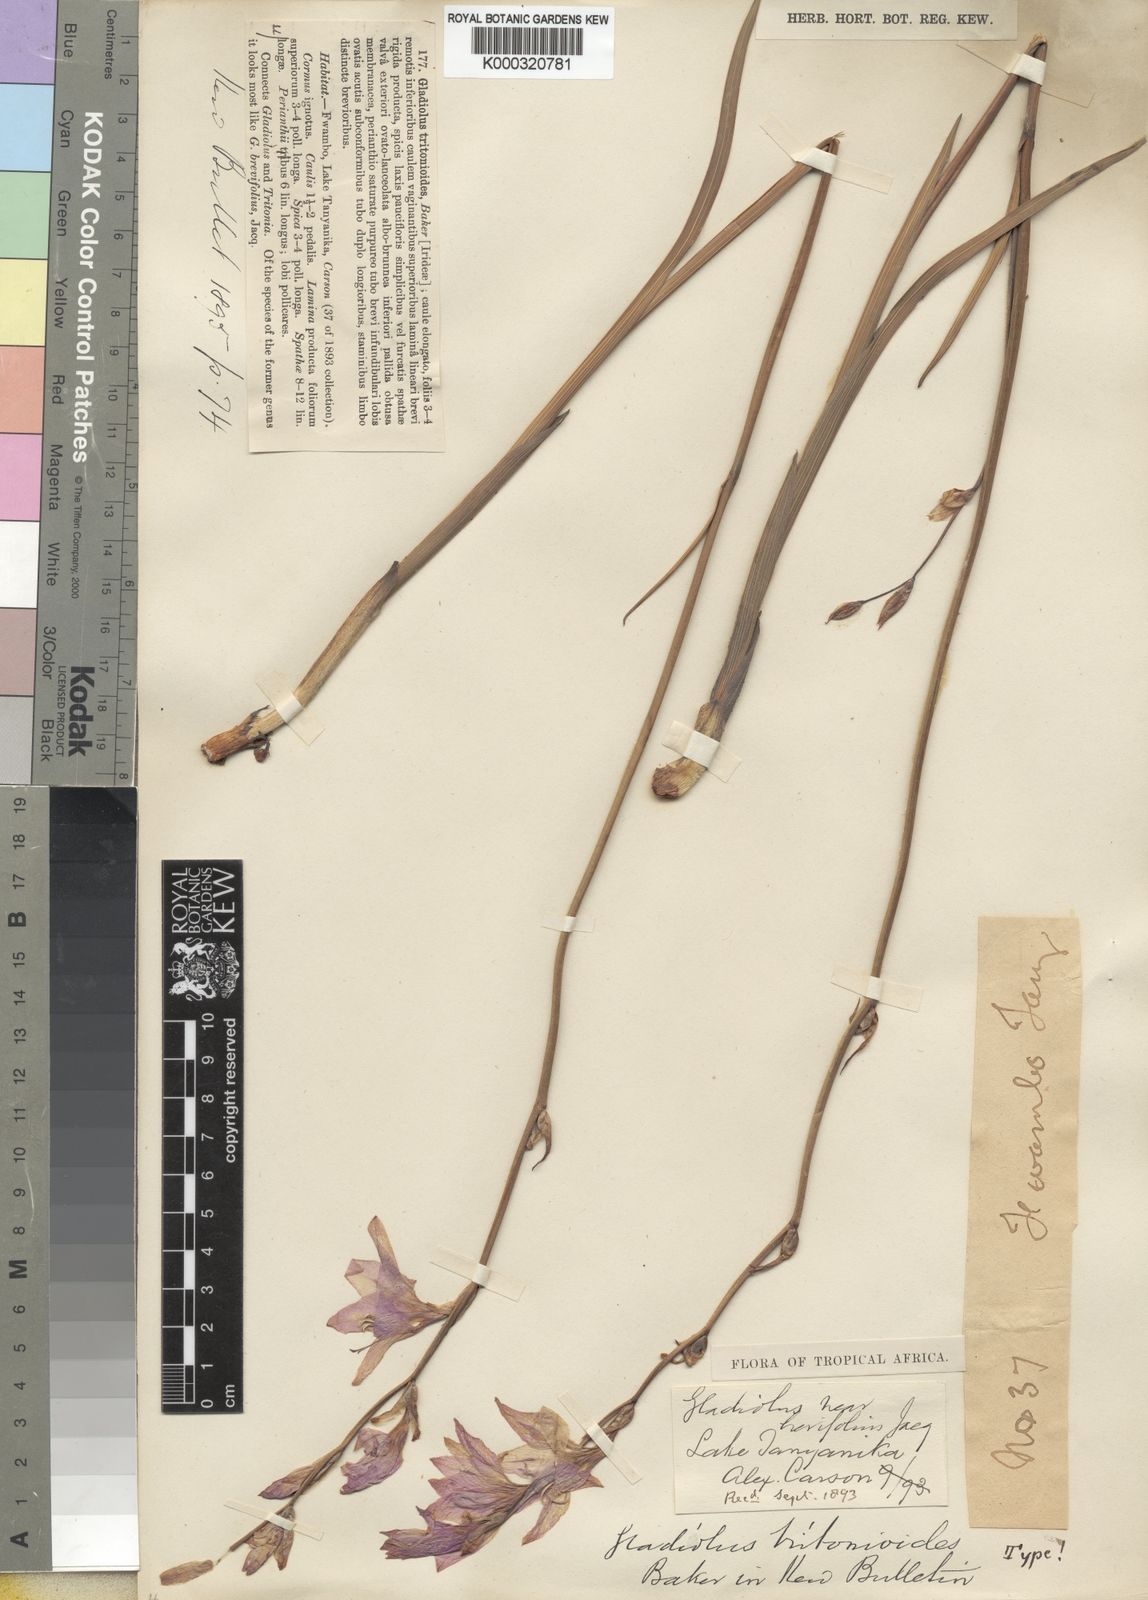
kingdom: Plantae
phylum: Tracheophyta
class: Liliopsida
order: Asparagales
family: Iridaceae
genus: Gladiolus
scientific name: Gladiolus laxiflorus
